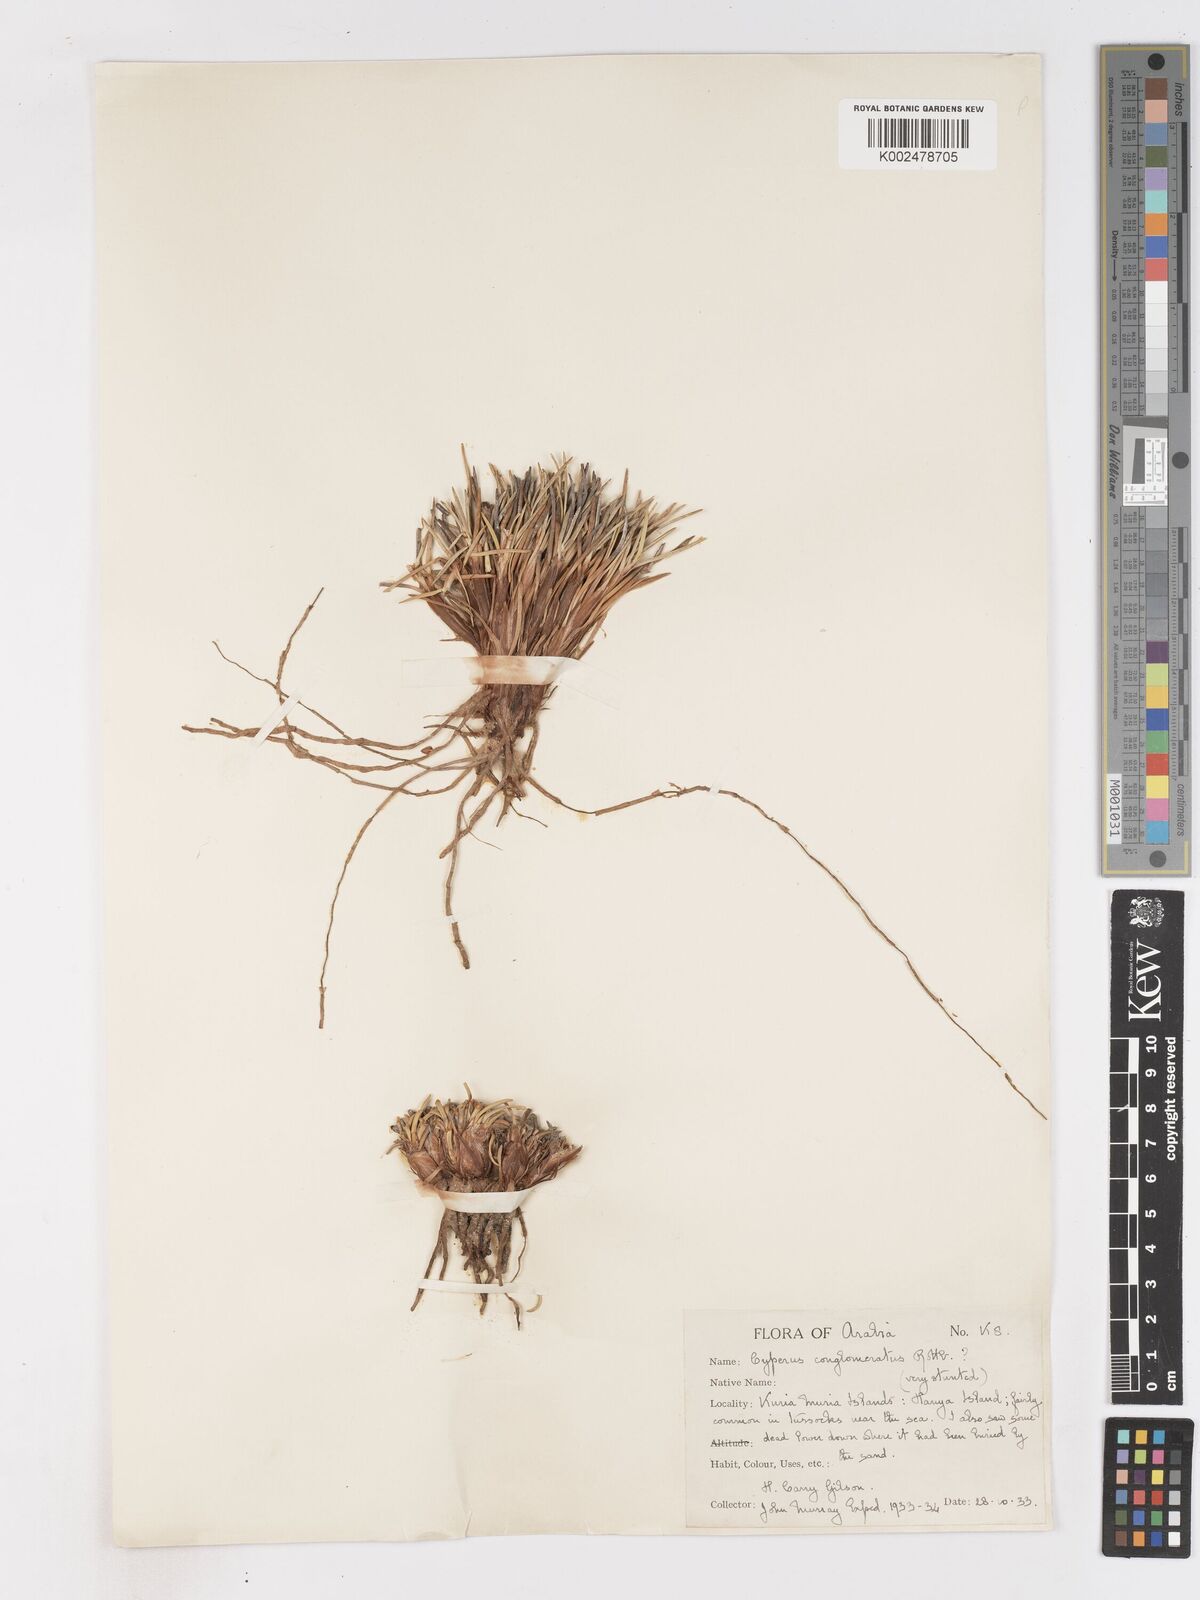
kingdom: Plantae
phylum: Tracheophyta
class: Liliopsida
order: Poales
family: Cyperaceae
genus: Cyperus
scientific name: Cyperus conglomeratus
